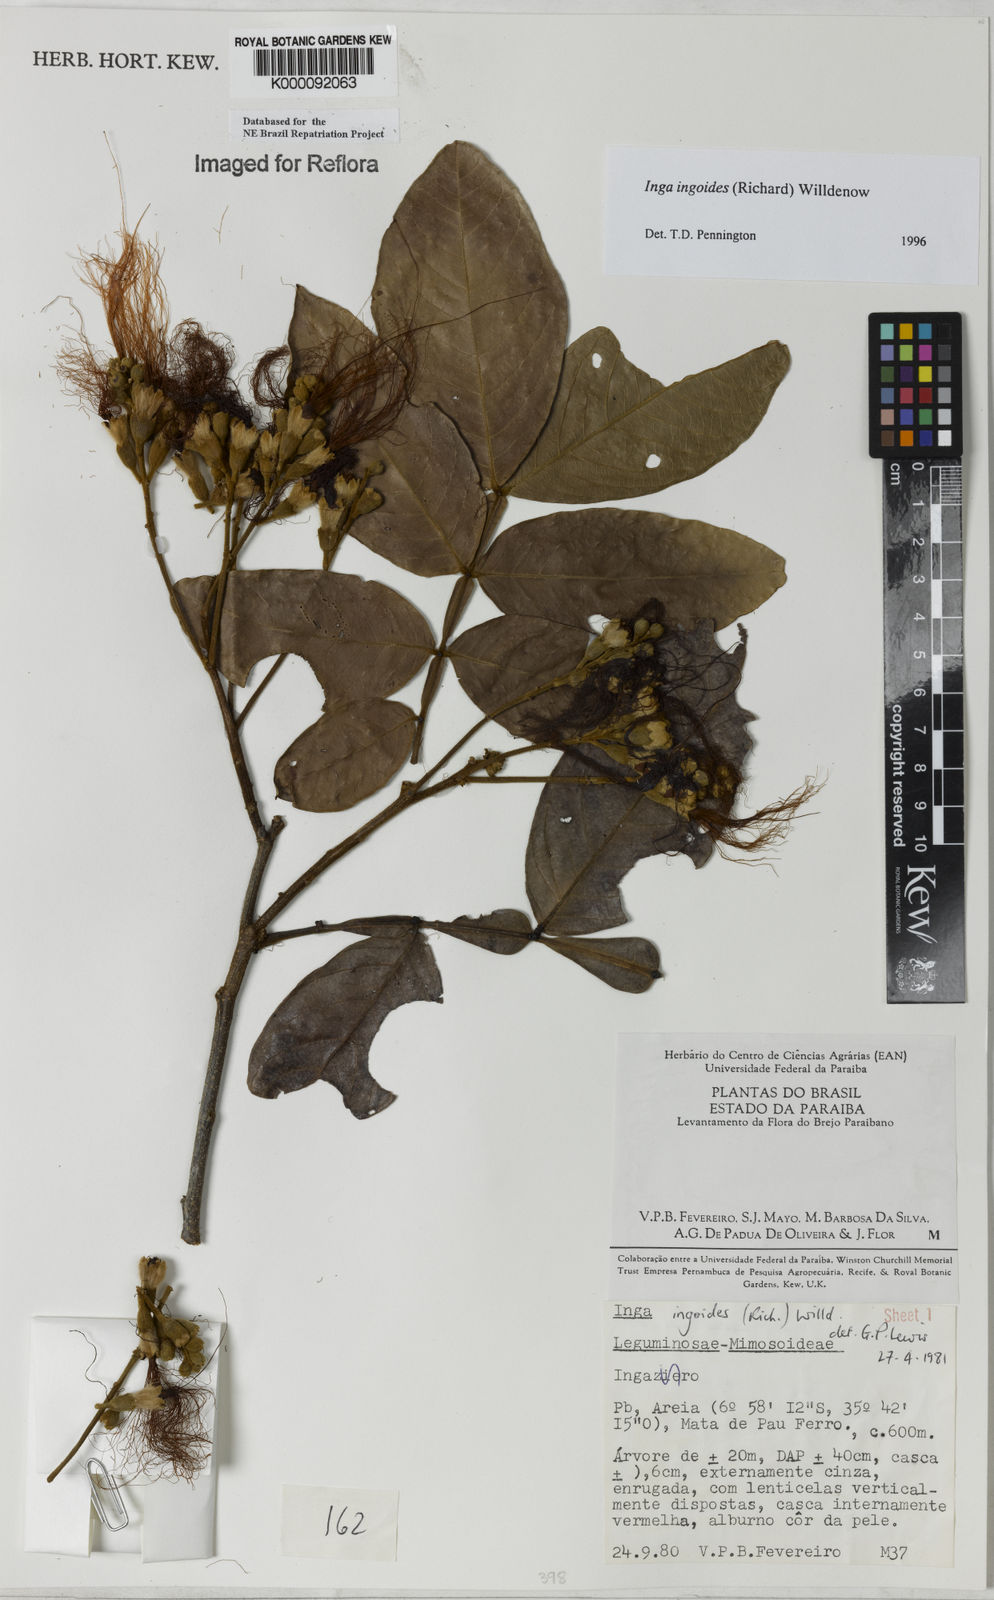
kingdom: Plantae
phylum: Tracheophyta
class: Magnoliopsida
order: Fabales
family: Fabaceae
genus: Inga
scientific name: Inga ingoides
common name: Spanish ash
